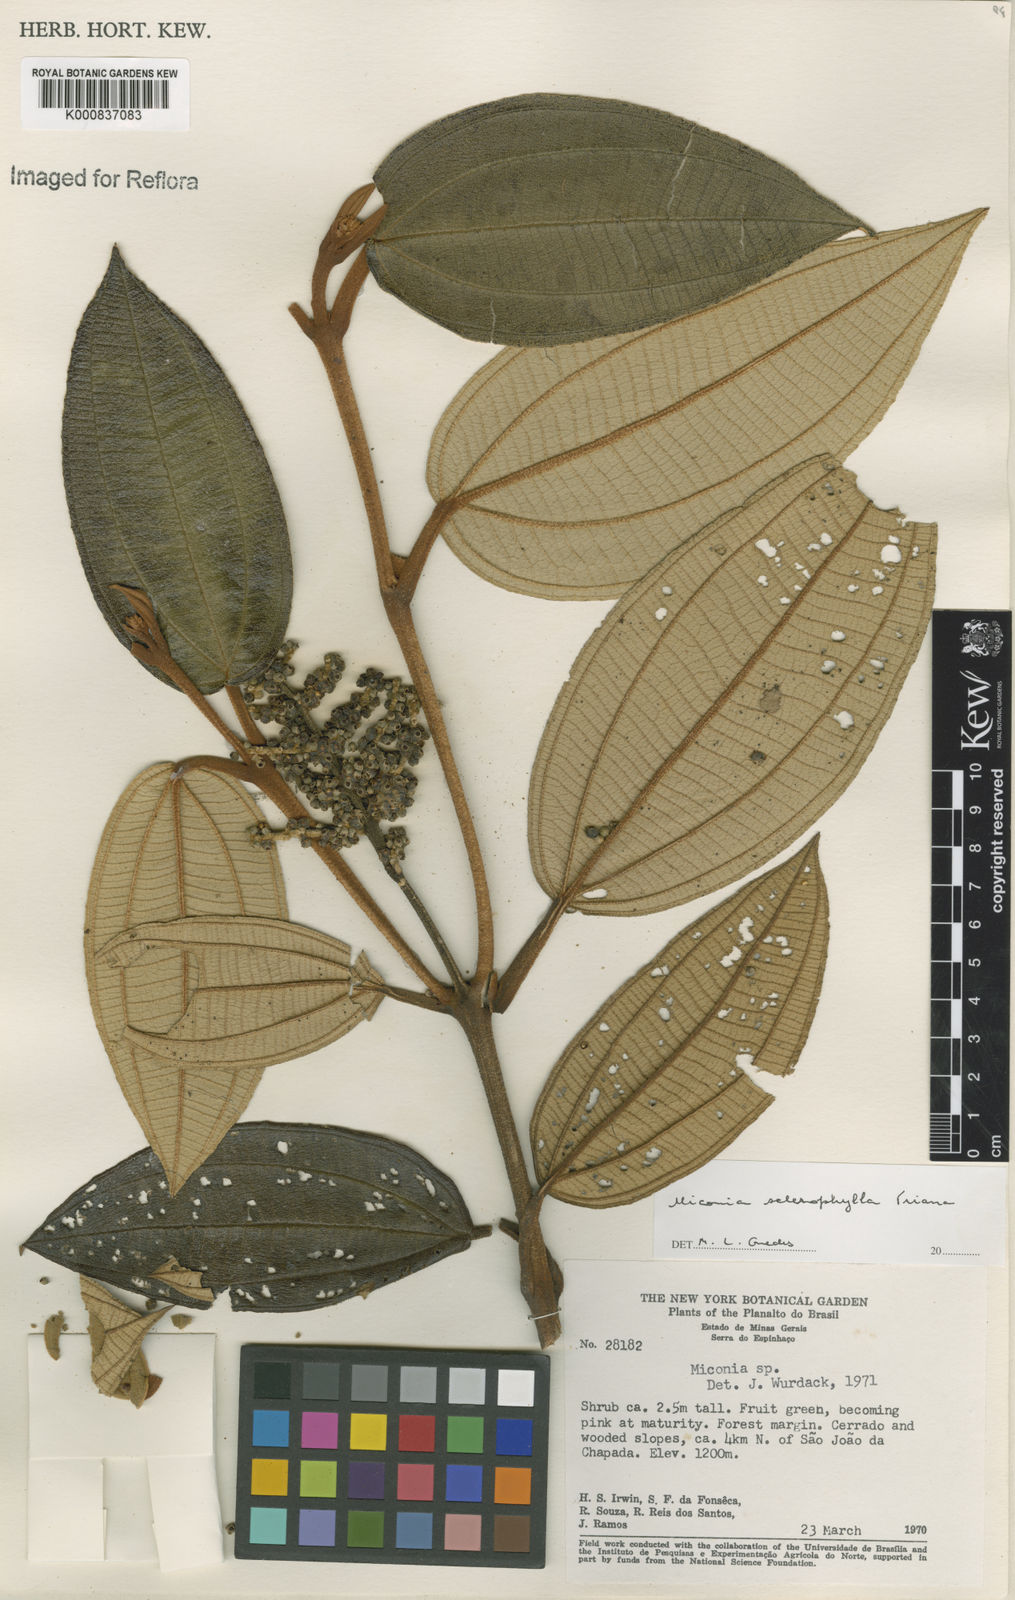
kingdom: Plantae
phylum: Tracheophyta
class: Magnoliopsida
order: Myrtales
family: Melastomataceae
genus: Miconia
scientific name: Miconia sclerophylla
